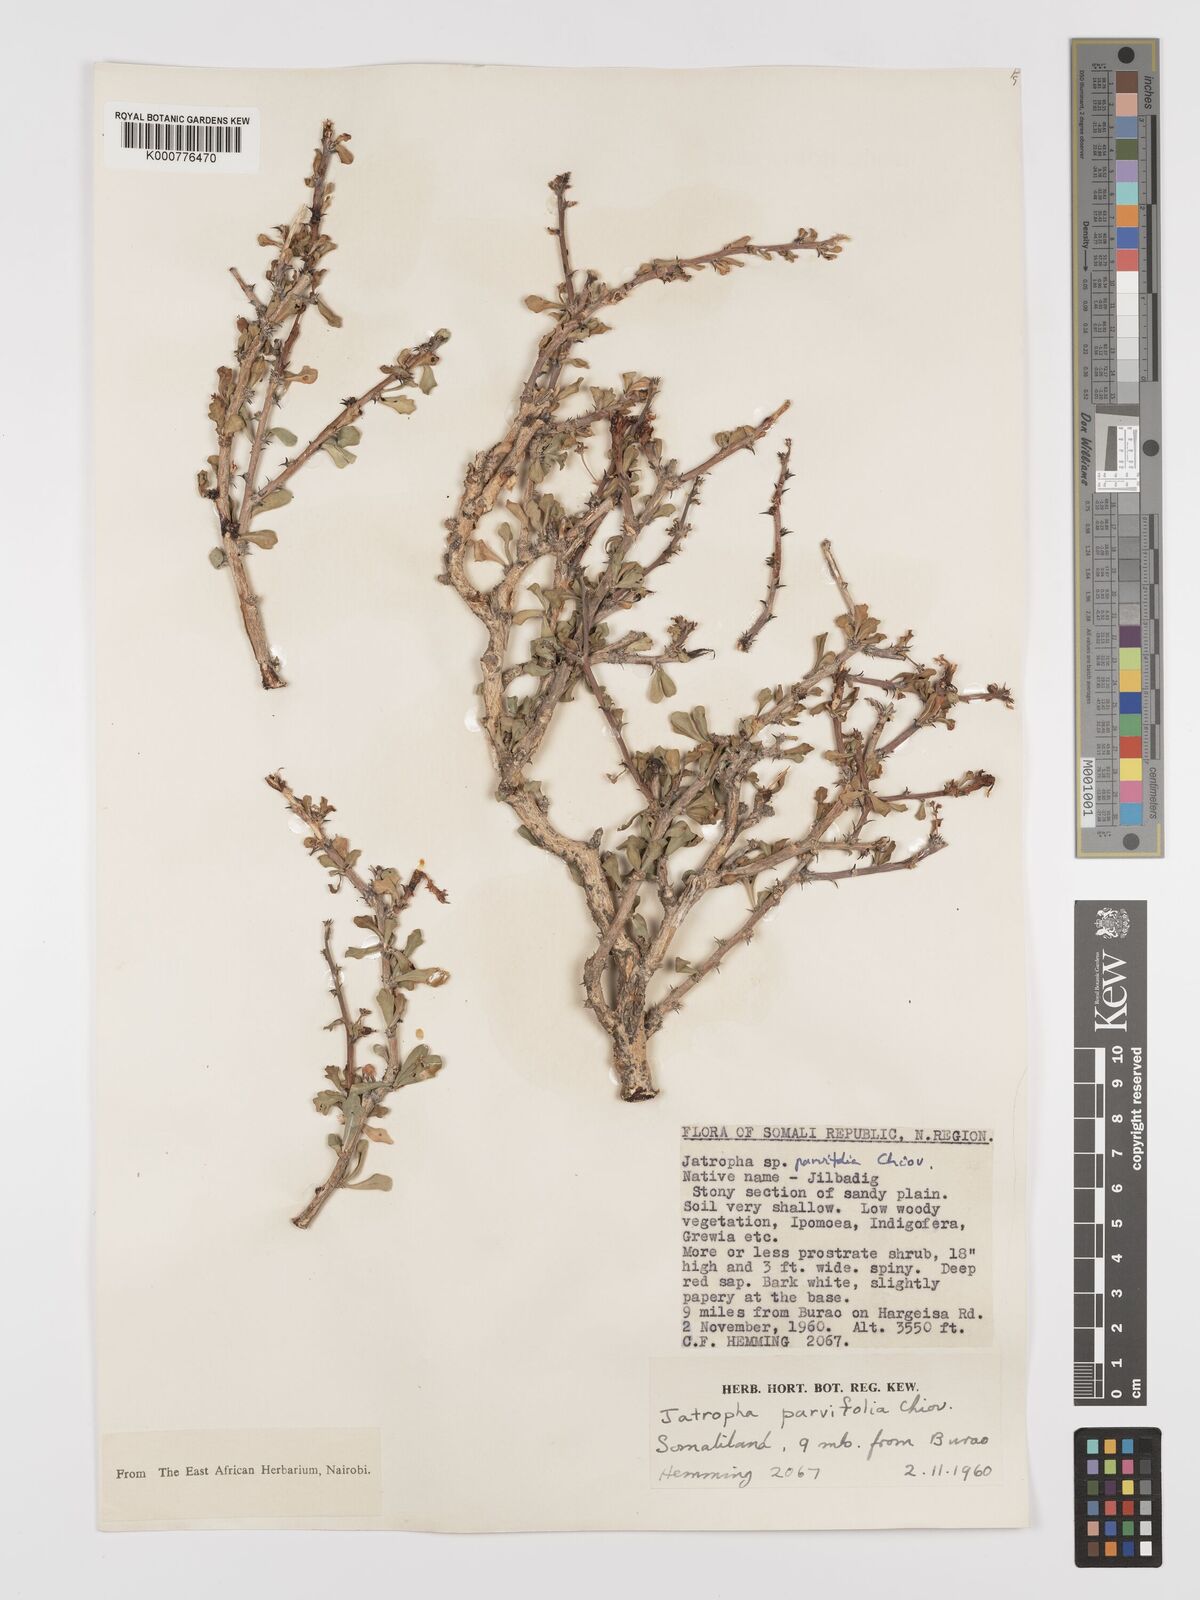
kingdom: Plantae
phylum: Tracheophyta
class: Magnoliopsida
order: Malpighiales
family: Euphorbiaceae
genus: Jatropha
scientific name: Jatropha rivae
